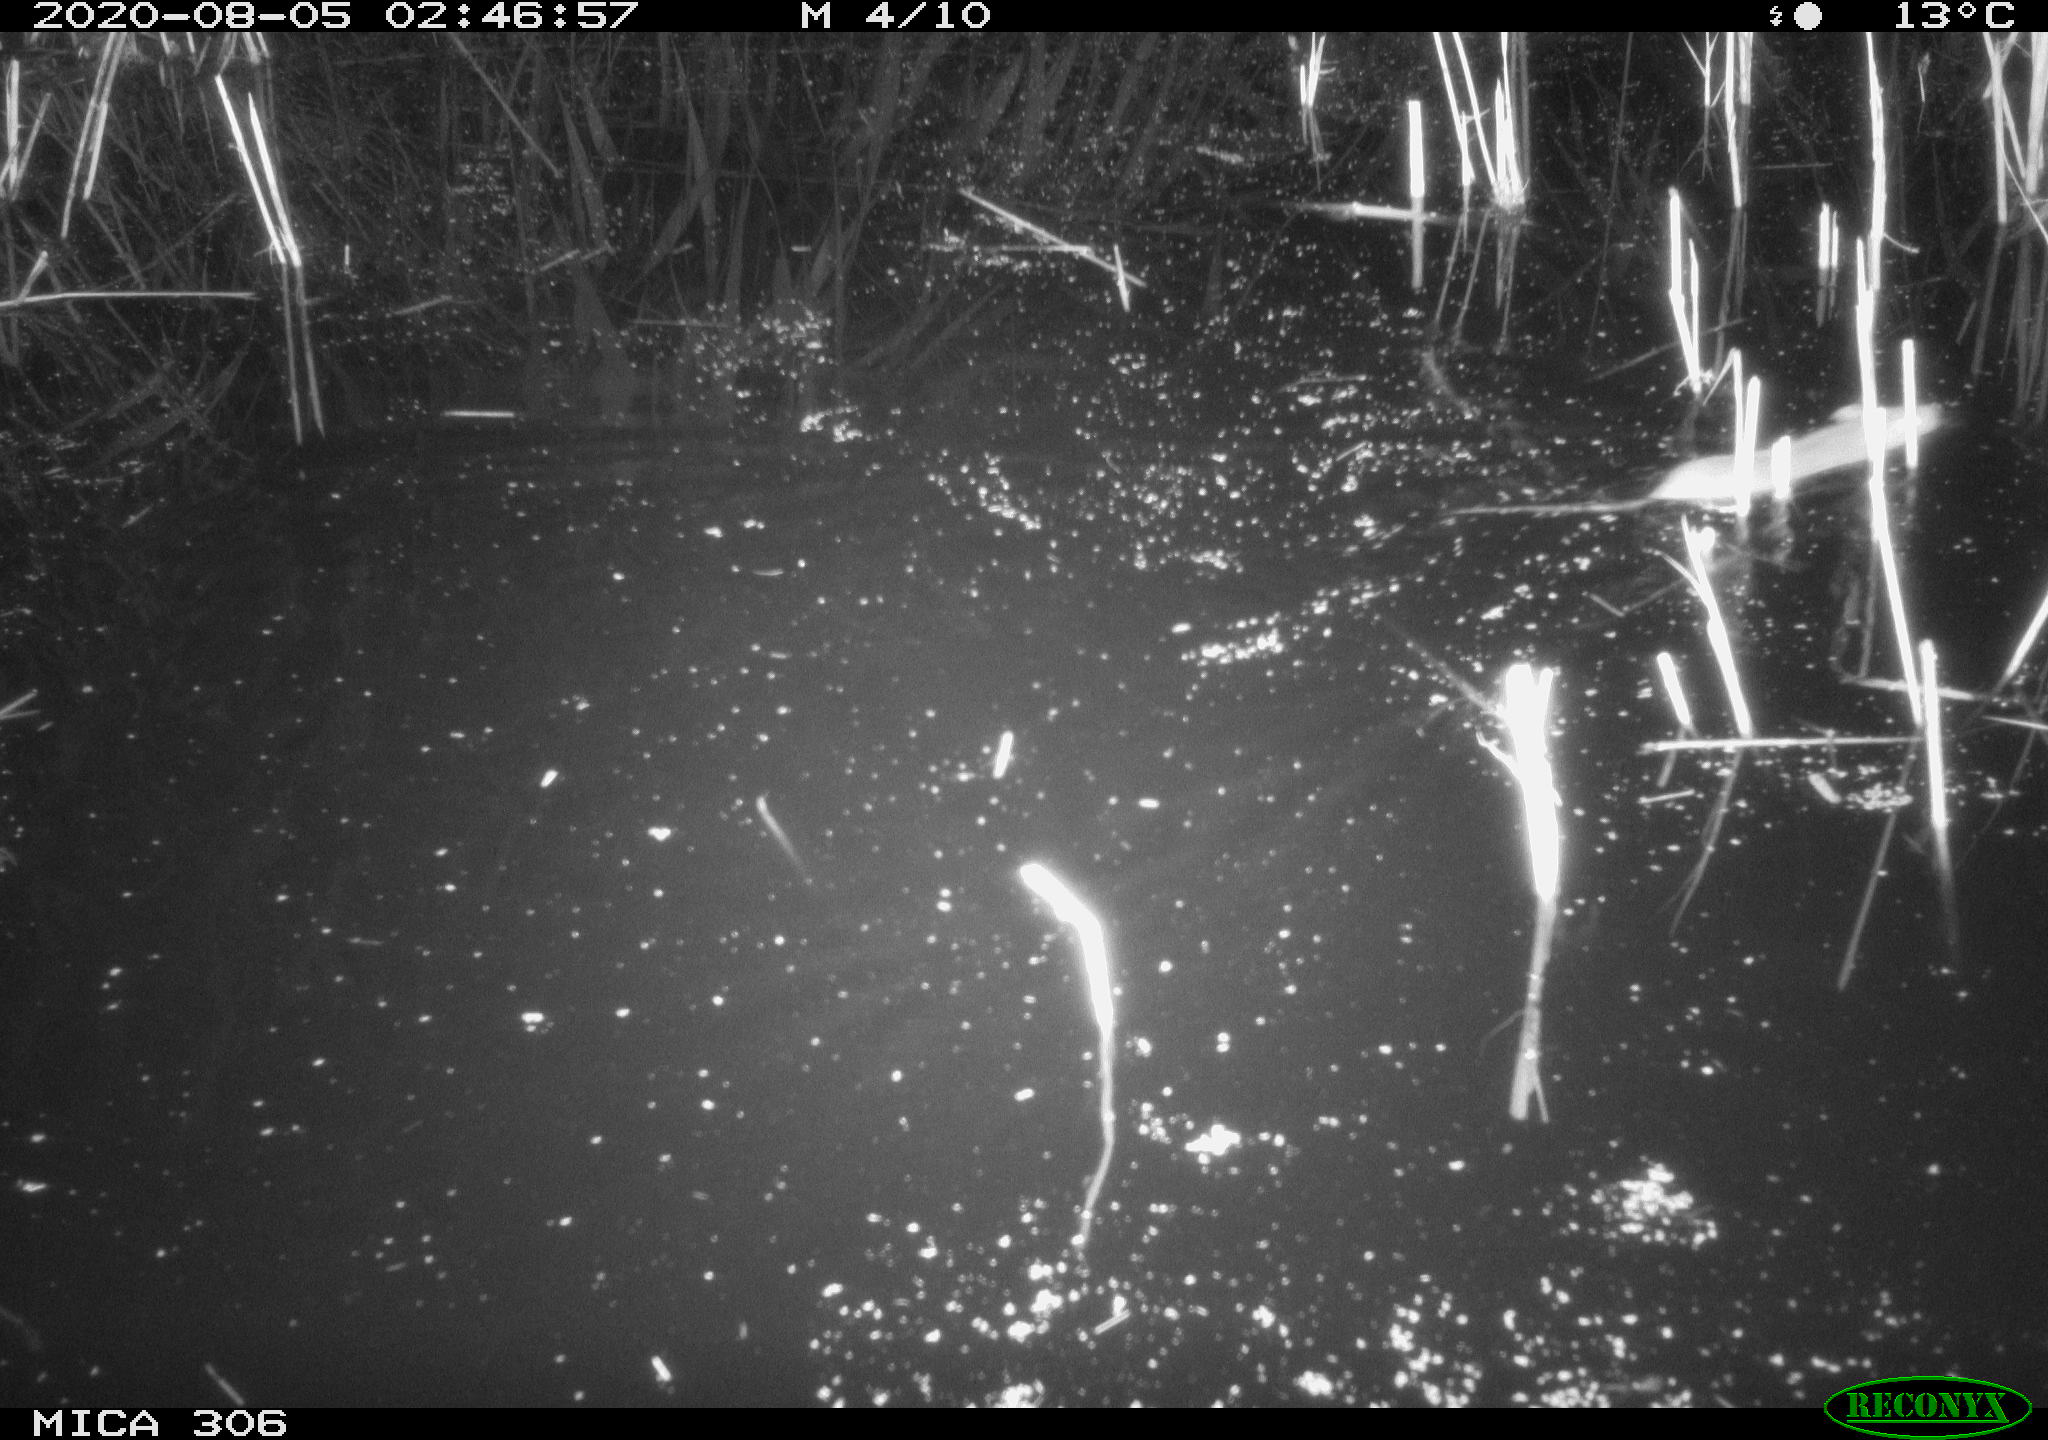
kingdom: Animalia
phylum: Chordata
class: Mammalia
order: Rodentia
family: Muridae
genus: Rattus
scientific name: Rattus norvegicus
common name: Brown rat
